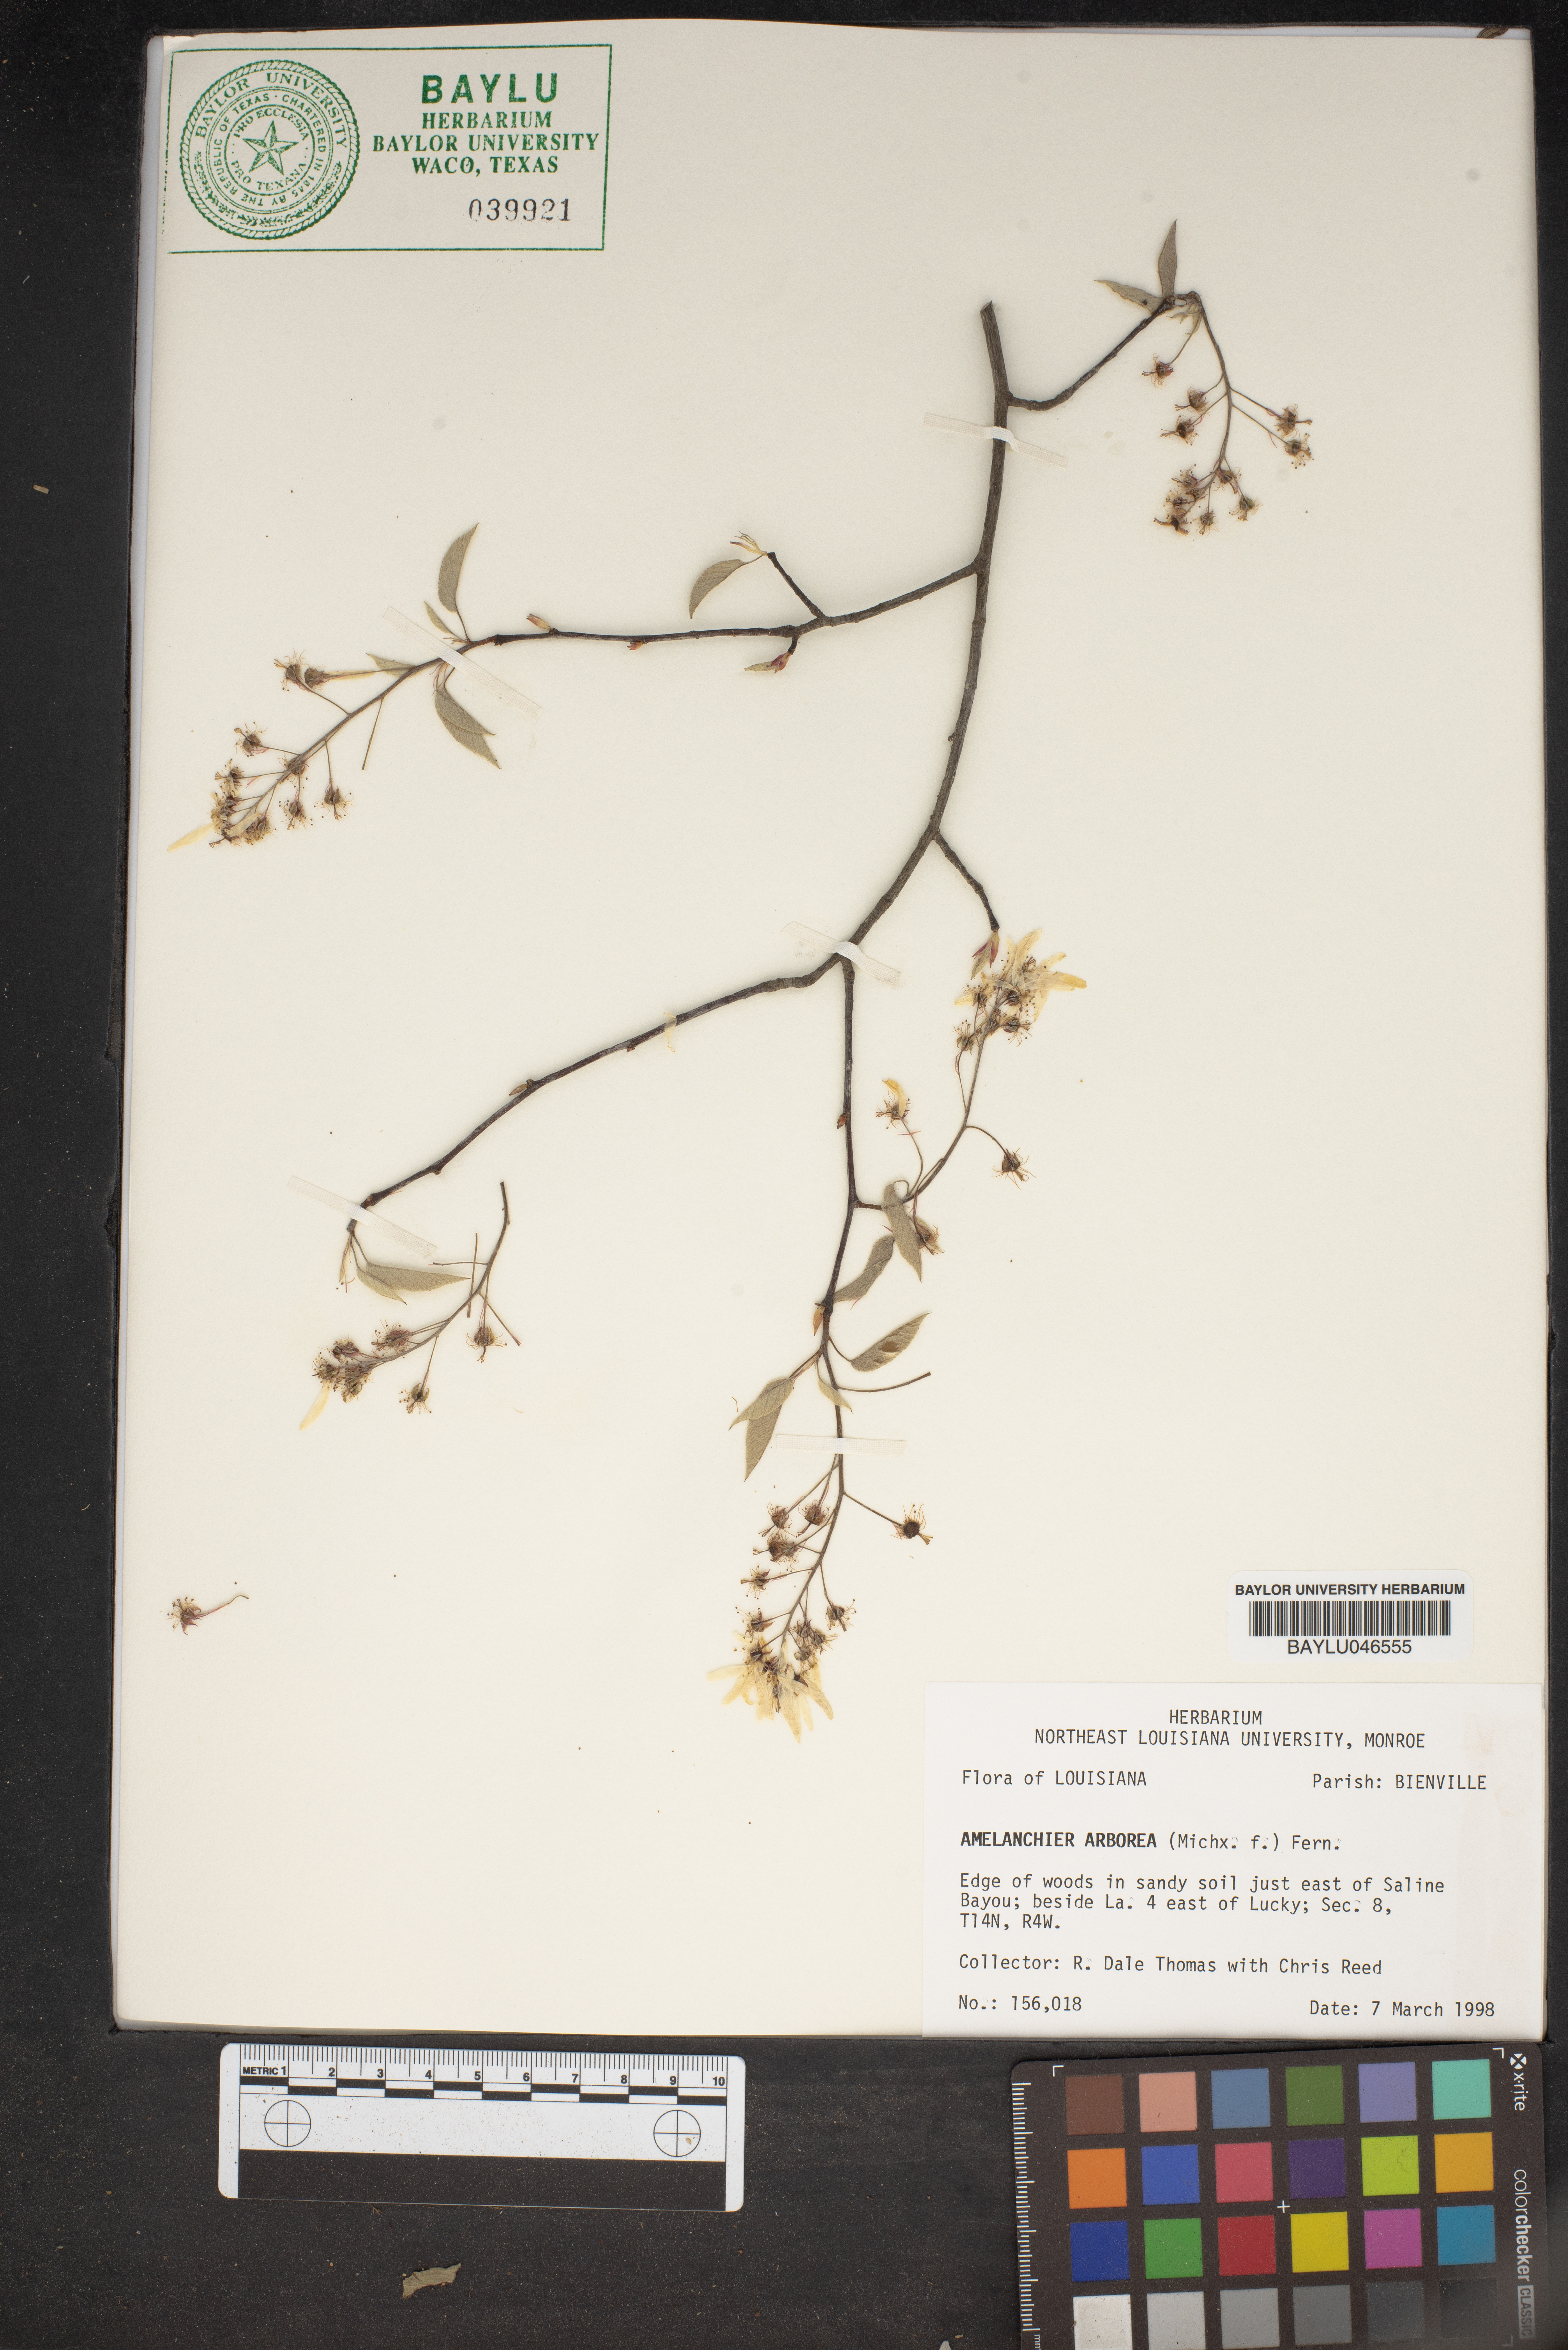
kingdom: Plantae
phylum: Tracheophyta
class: Magnoliopsida
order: Rosales
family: Rosaceae
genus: Amelanchier
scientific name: Amelanchier arborea
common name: Downy serviceberry
